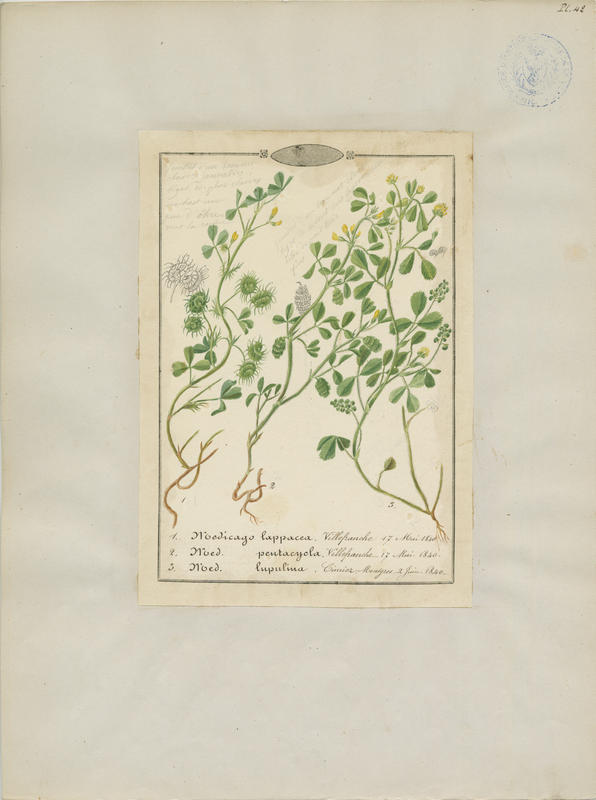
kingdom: Plantae
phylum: Tracheophyta
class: Magnoliopsida
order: Fabales
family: Fabaceae
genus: Medicago
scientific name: Medicago lupulina
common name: Black medick
